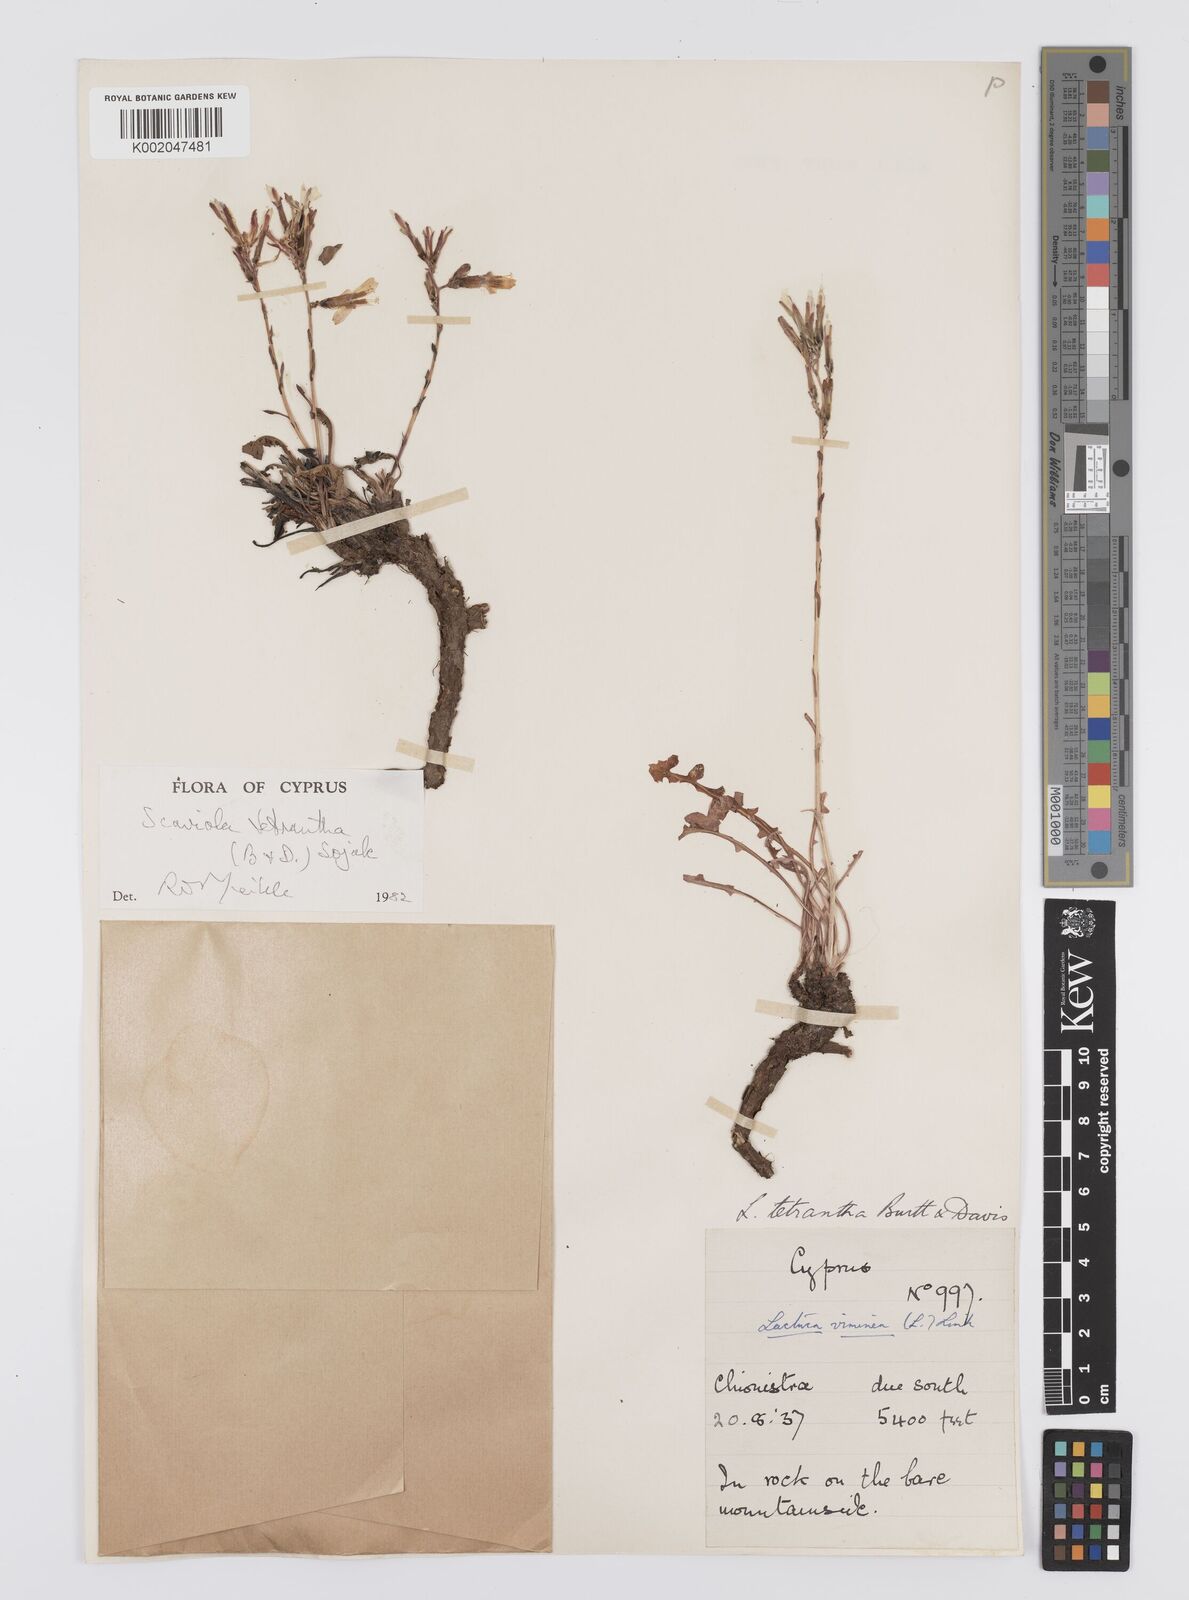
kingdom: Plantae
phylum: Tracheophyta
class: Magnoliopsida
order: Asterales
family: Asteraceae
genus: Lactuca
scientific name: Lactuca tetrantha
